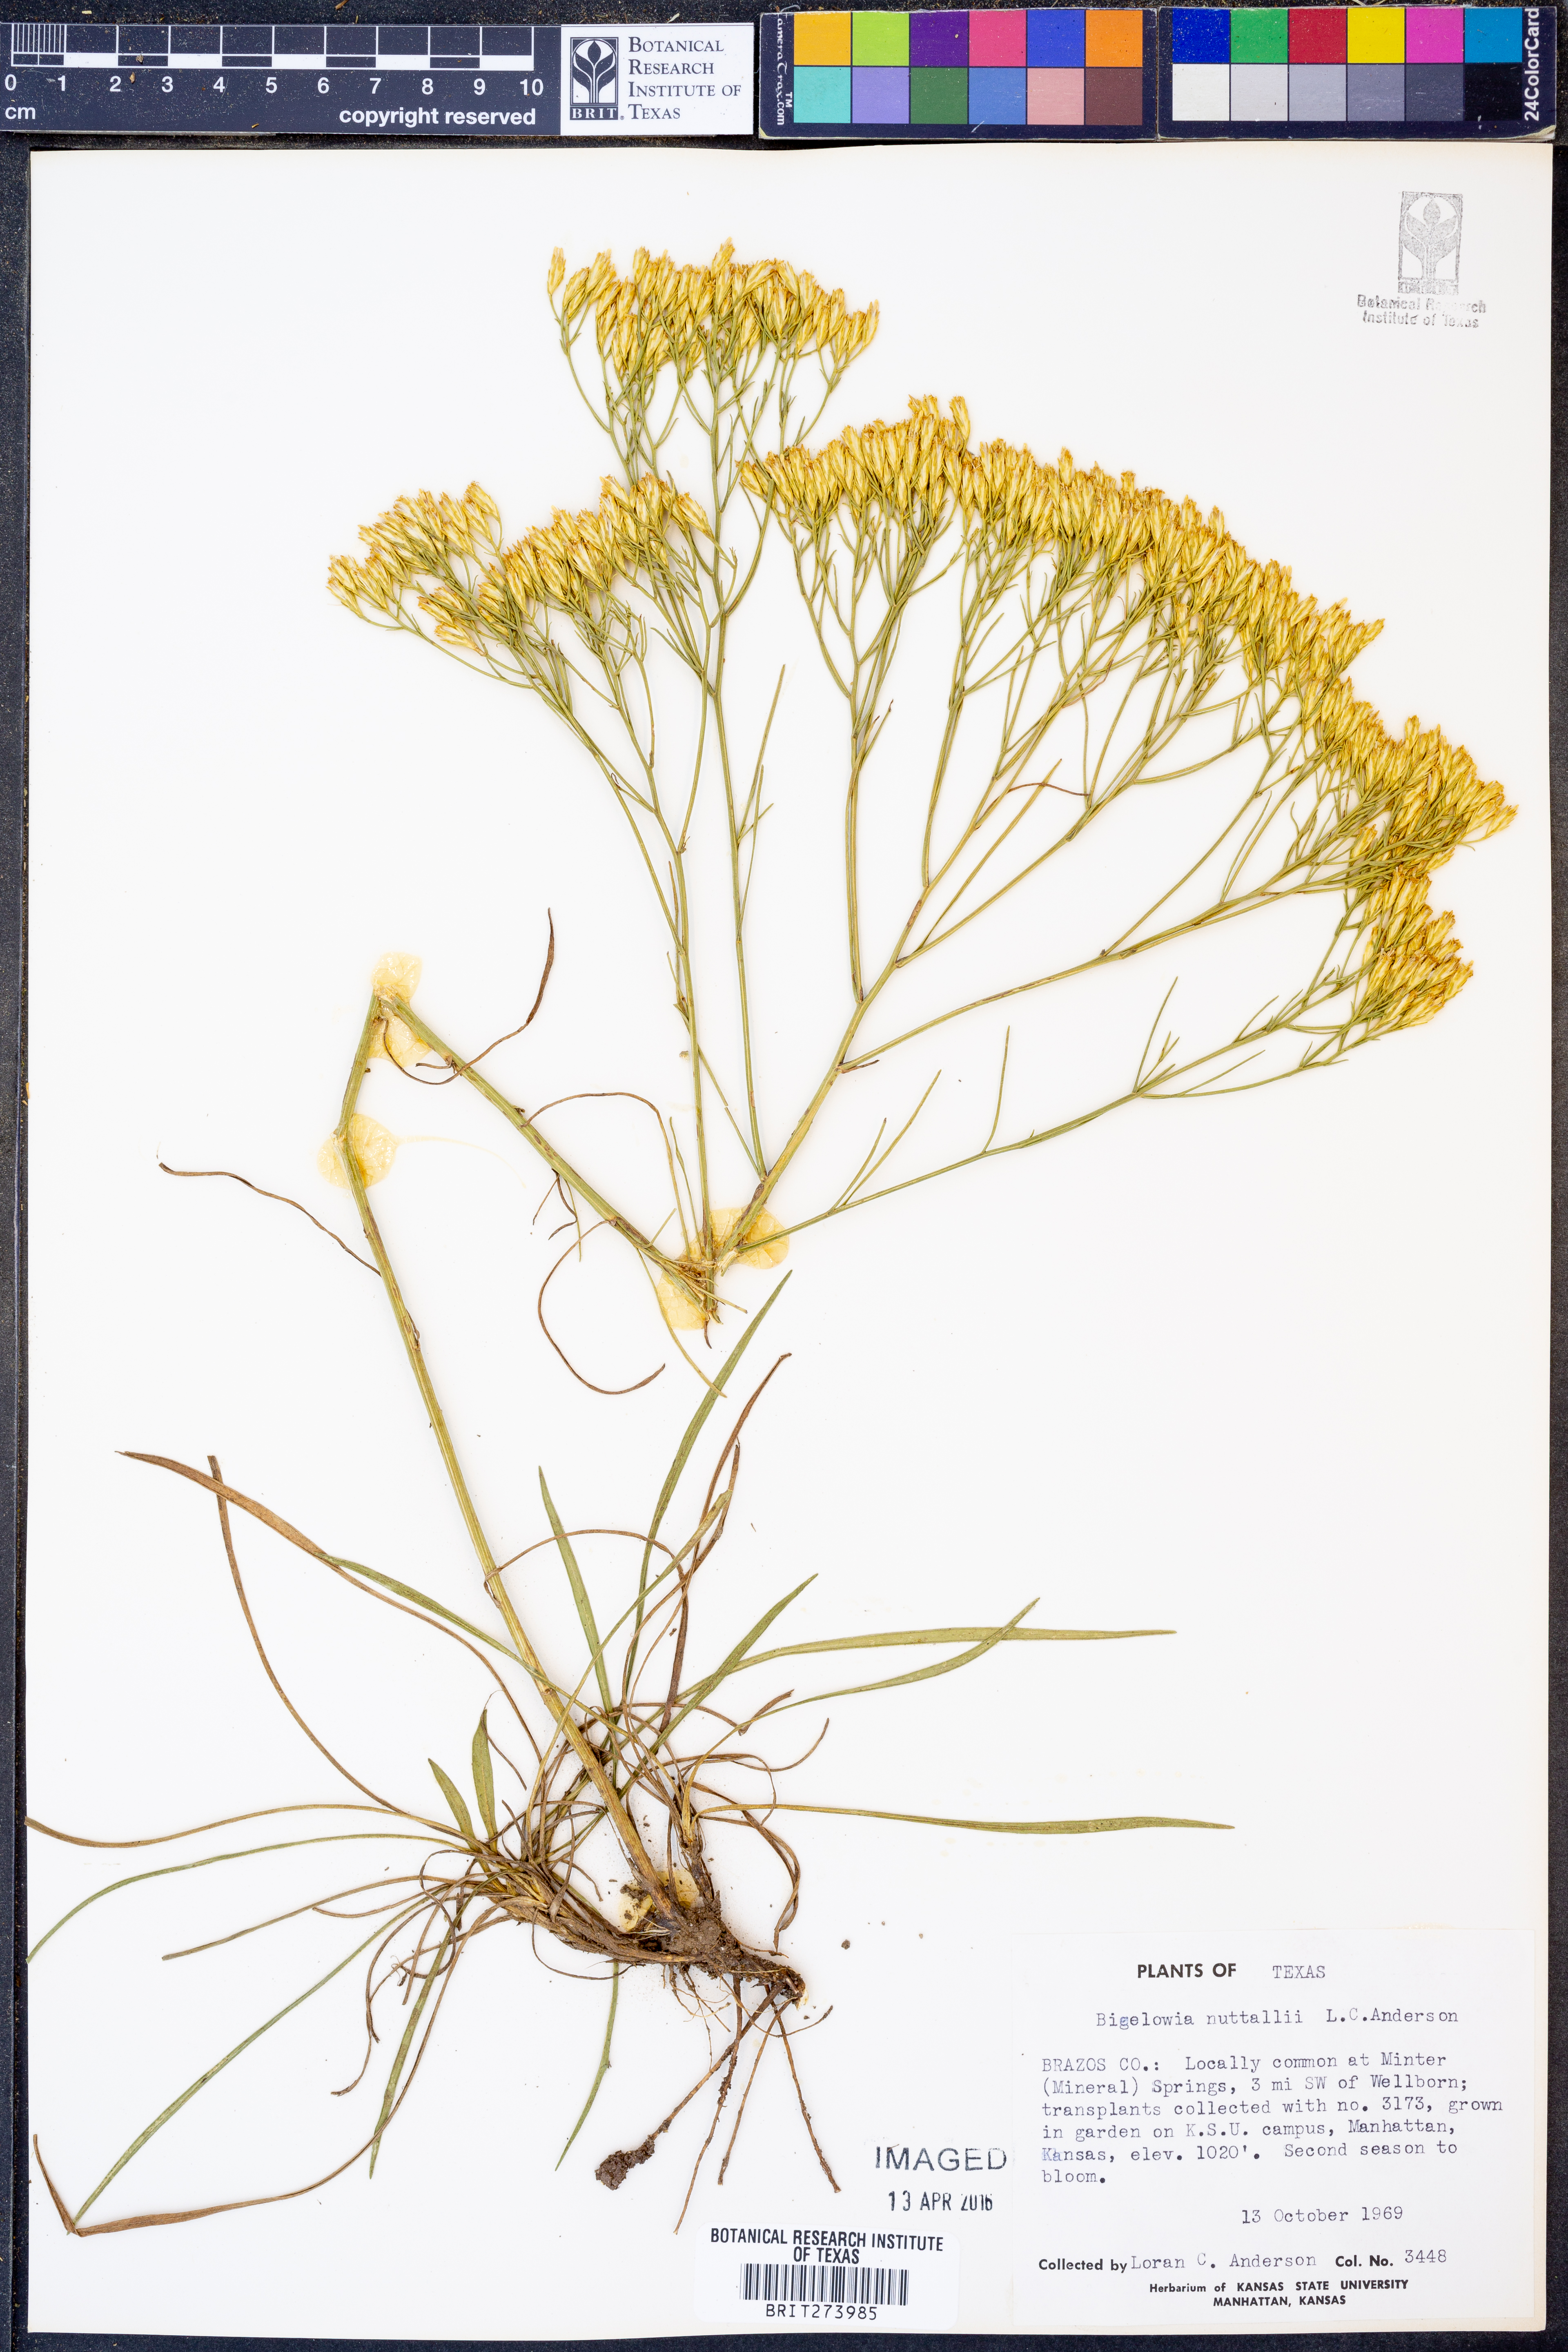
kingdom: Plantae
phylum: Tracheophyta
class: Magnoliopsida
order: Asterales
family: Asteraceae
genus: Bigelowia
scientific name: Bigelowia nuttallii
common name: Nuttall's rayless-goldenrod
